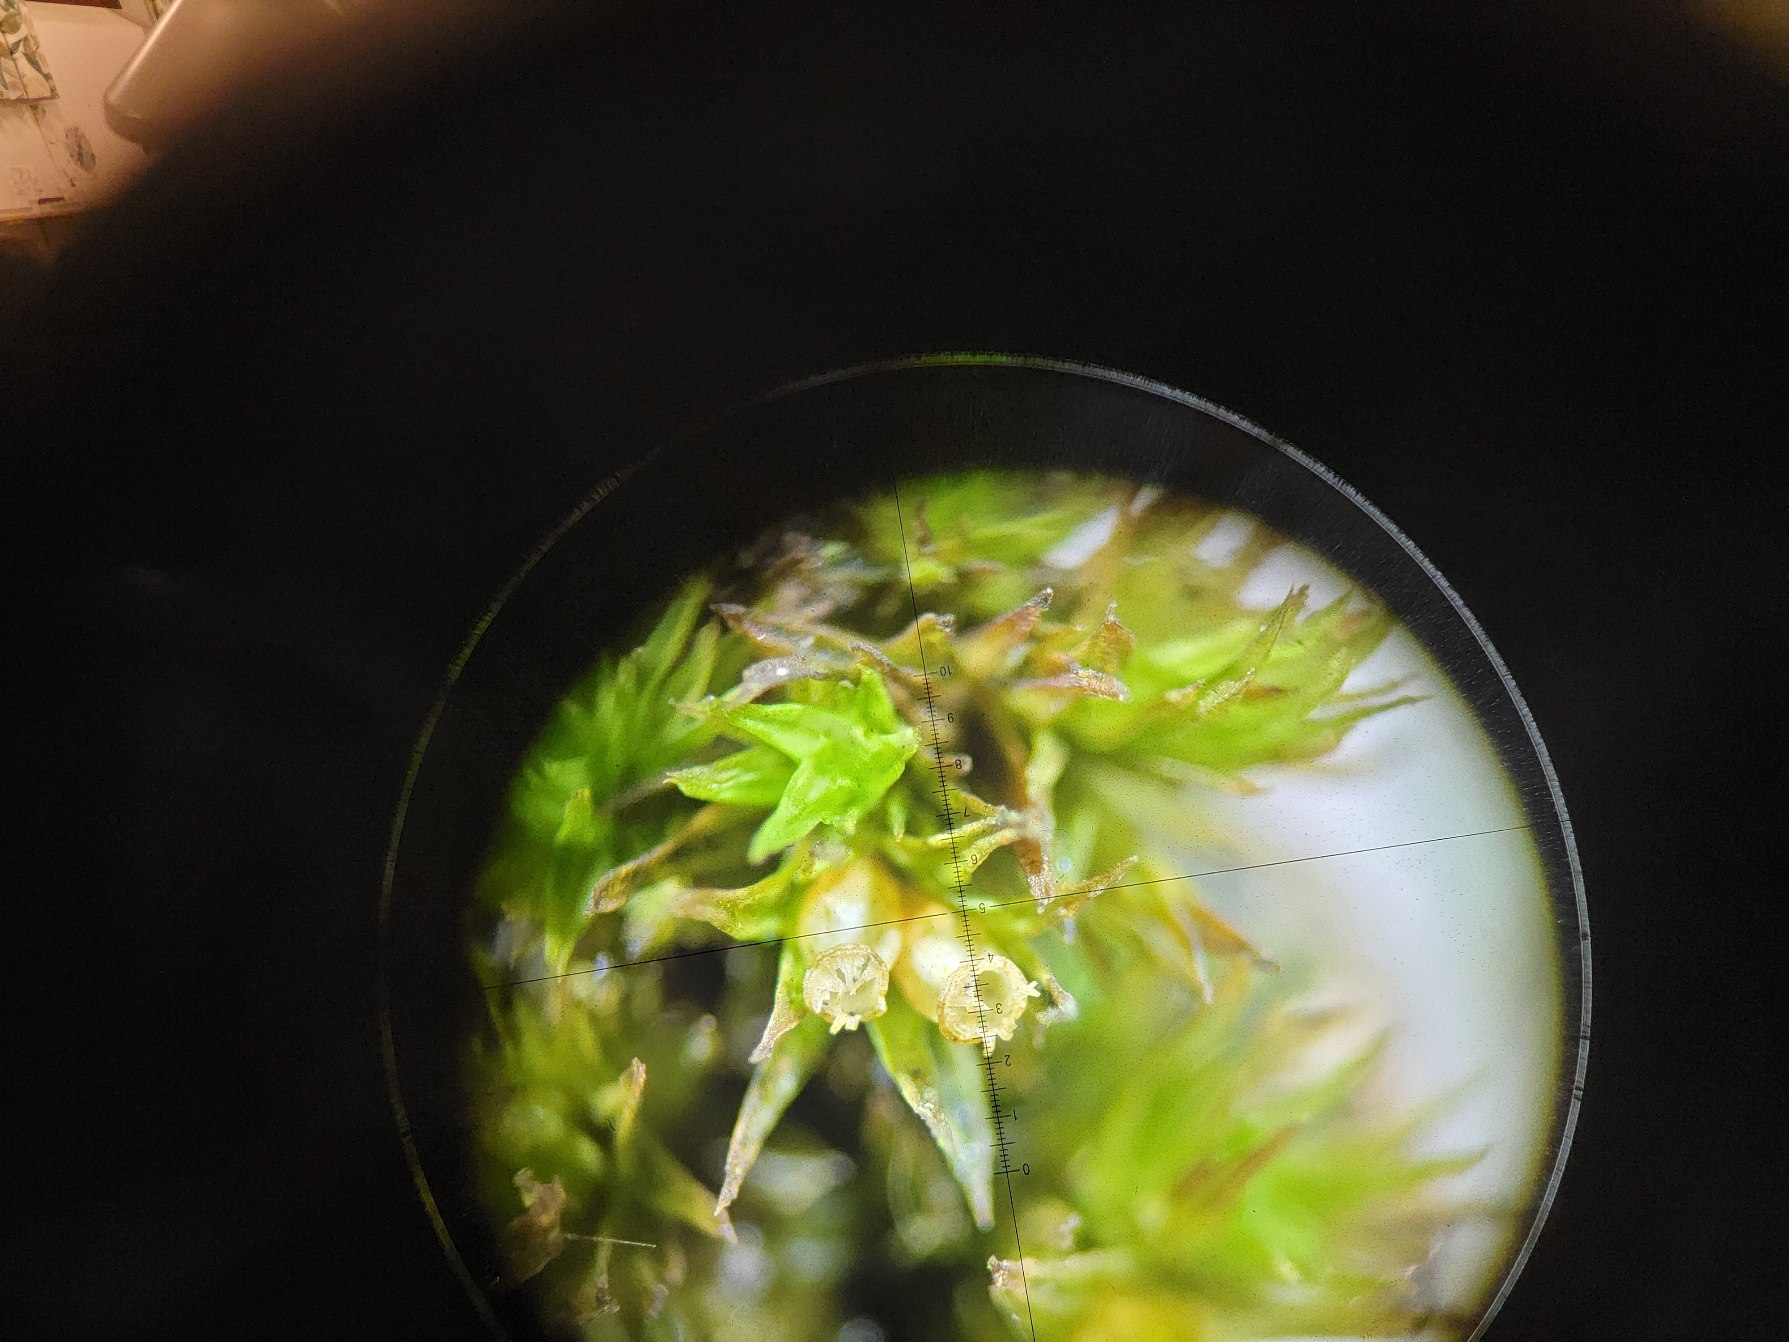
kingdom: Plantae
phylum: Bryophyta
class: Bryopsida
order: Orthotrichales
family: Orthotrichaceae
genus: Lewinskya
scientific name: Lewinskya striata
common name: Glatkapslet furehætte
